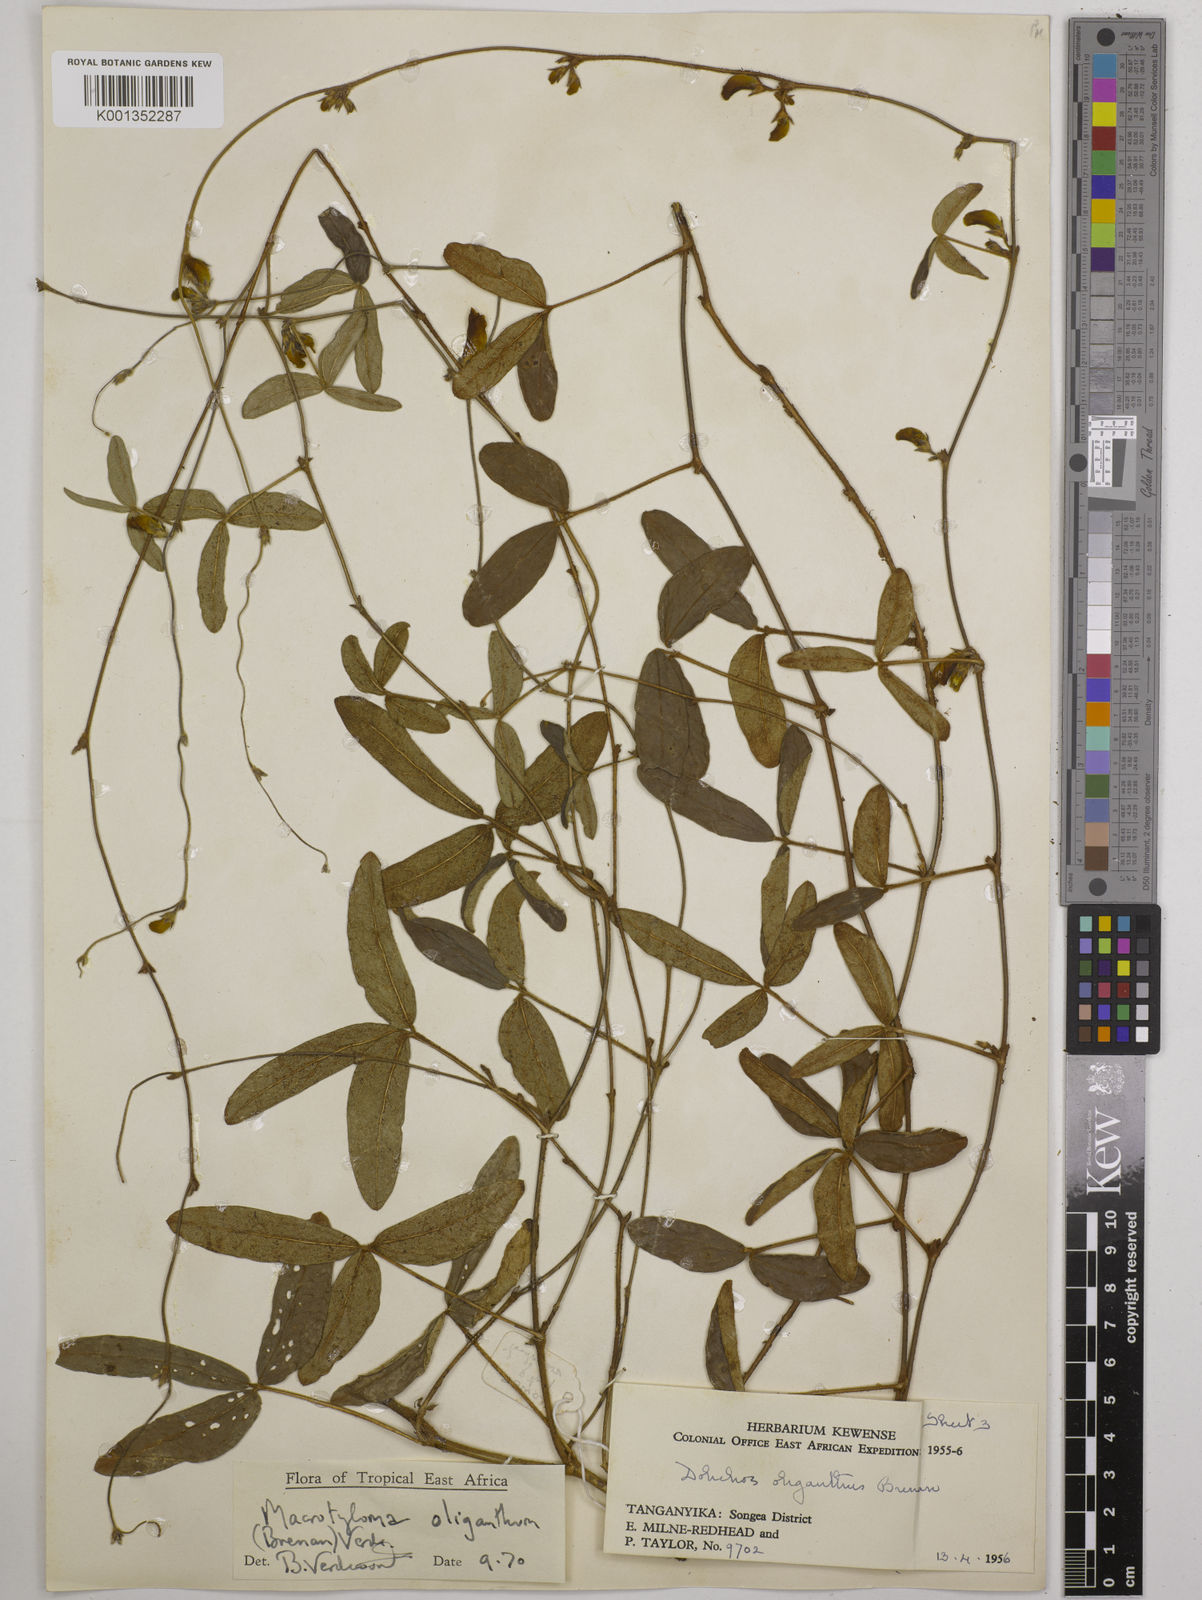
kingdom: Plantae
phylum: Tracheophyta
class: Magnoliopsida
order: Fabales
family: Fabaceae
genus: Macrotyloma
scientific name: Macrotyloma oliganthum
